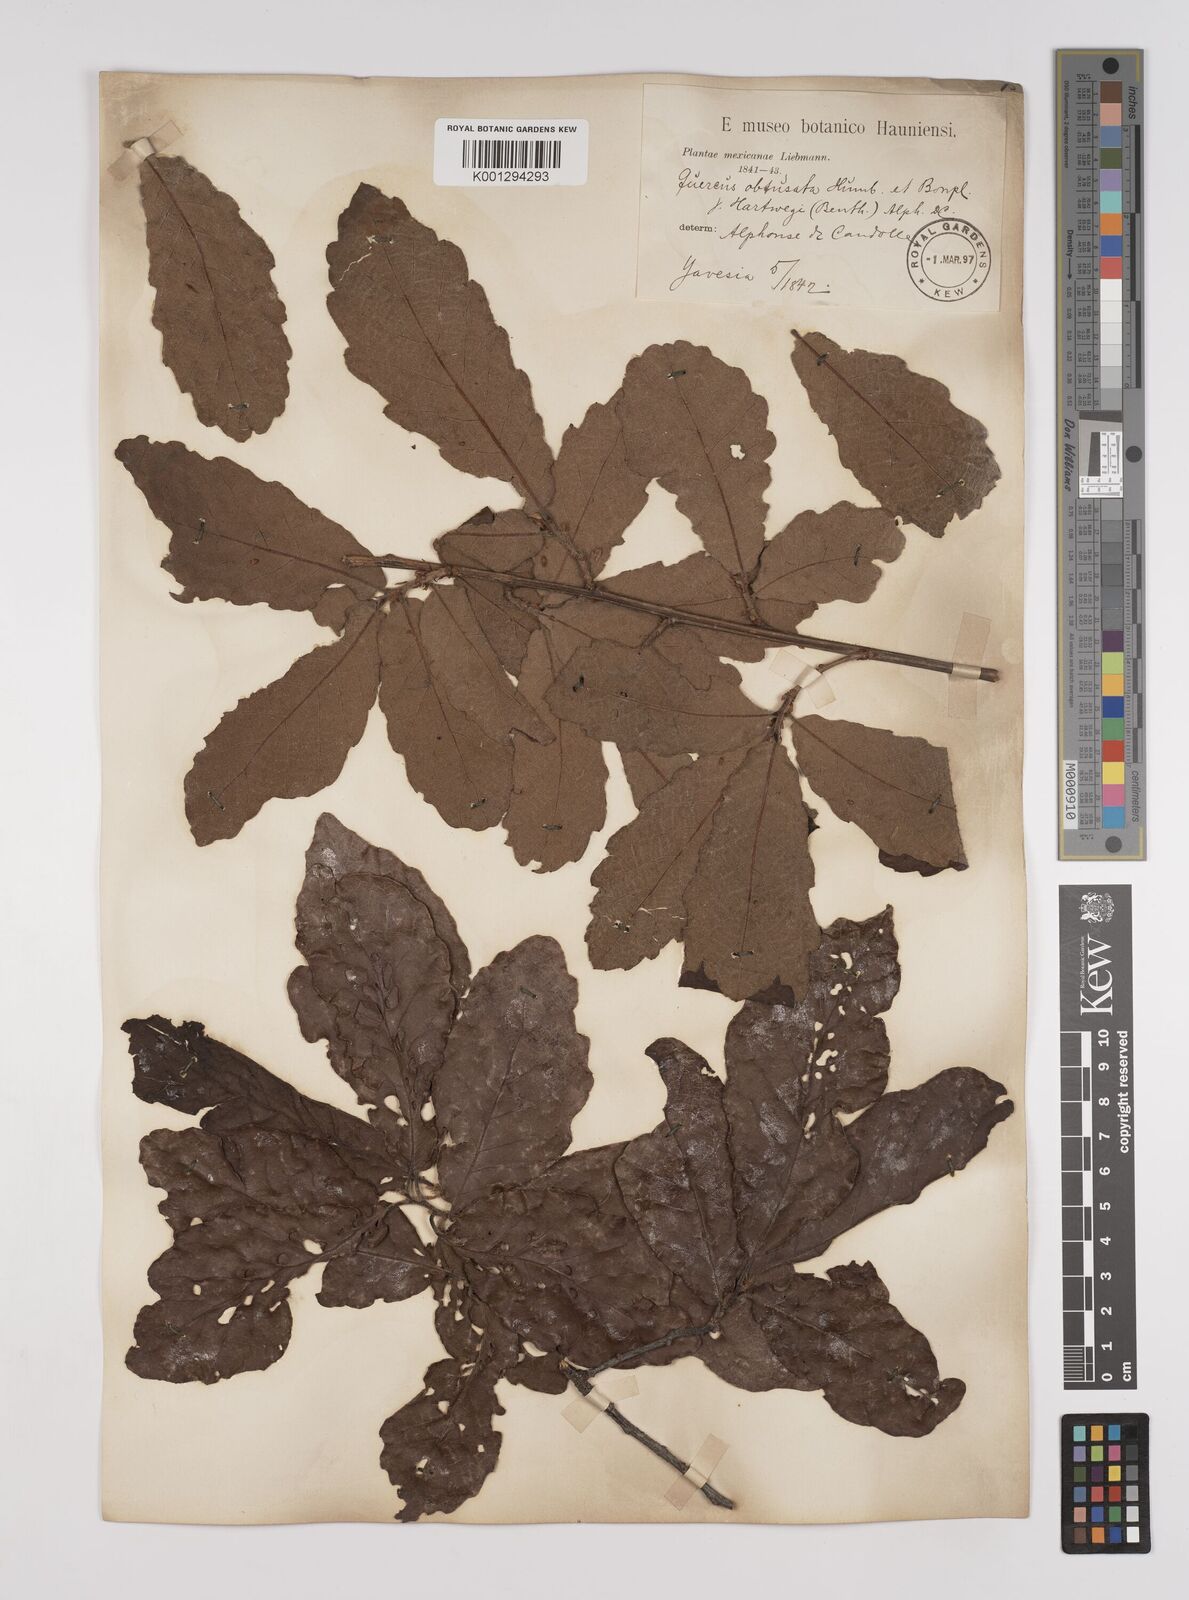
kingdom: Plantae
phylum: Tracheophyta
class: Magnoliopsida
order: Fagales
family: Fagaceae
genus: Quercus
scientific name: Quercus obtusata
